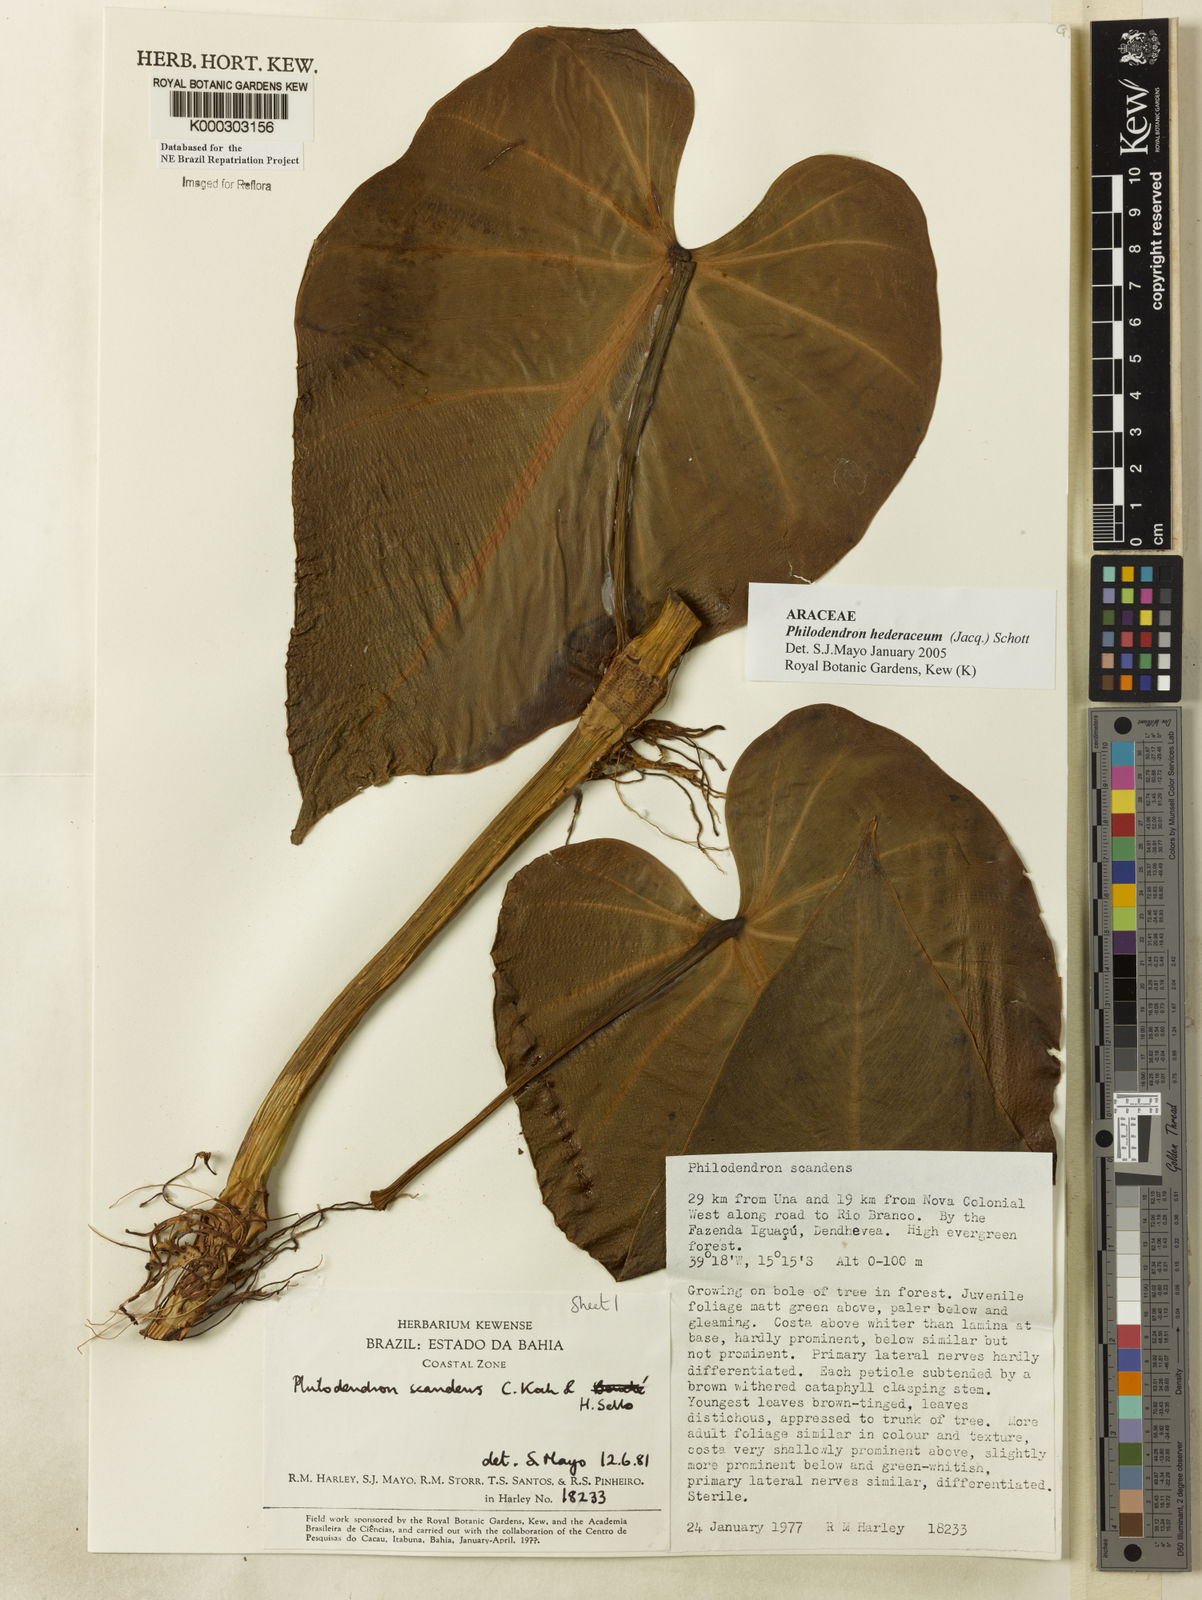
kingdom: Plantae
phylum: Tracheophyta
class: Liliopsida
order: Alismatales
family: Araceae
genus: Philodendron
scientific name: Philodendron hederaceum
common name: Vilevine
